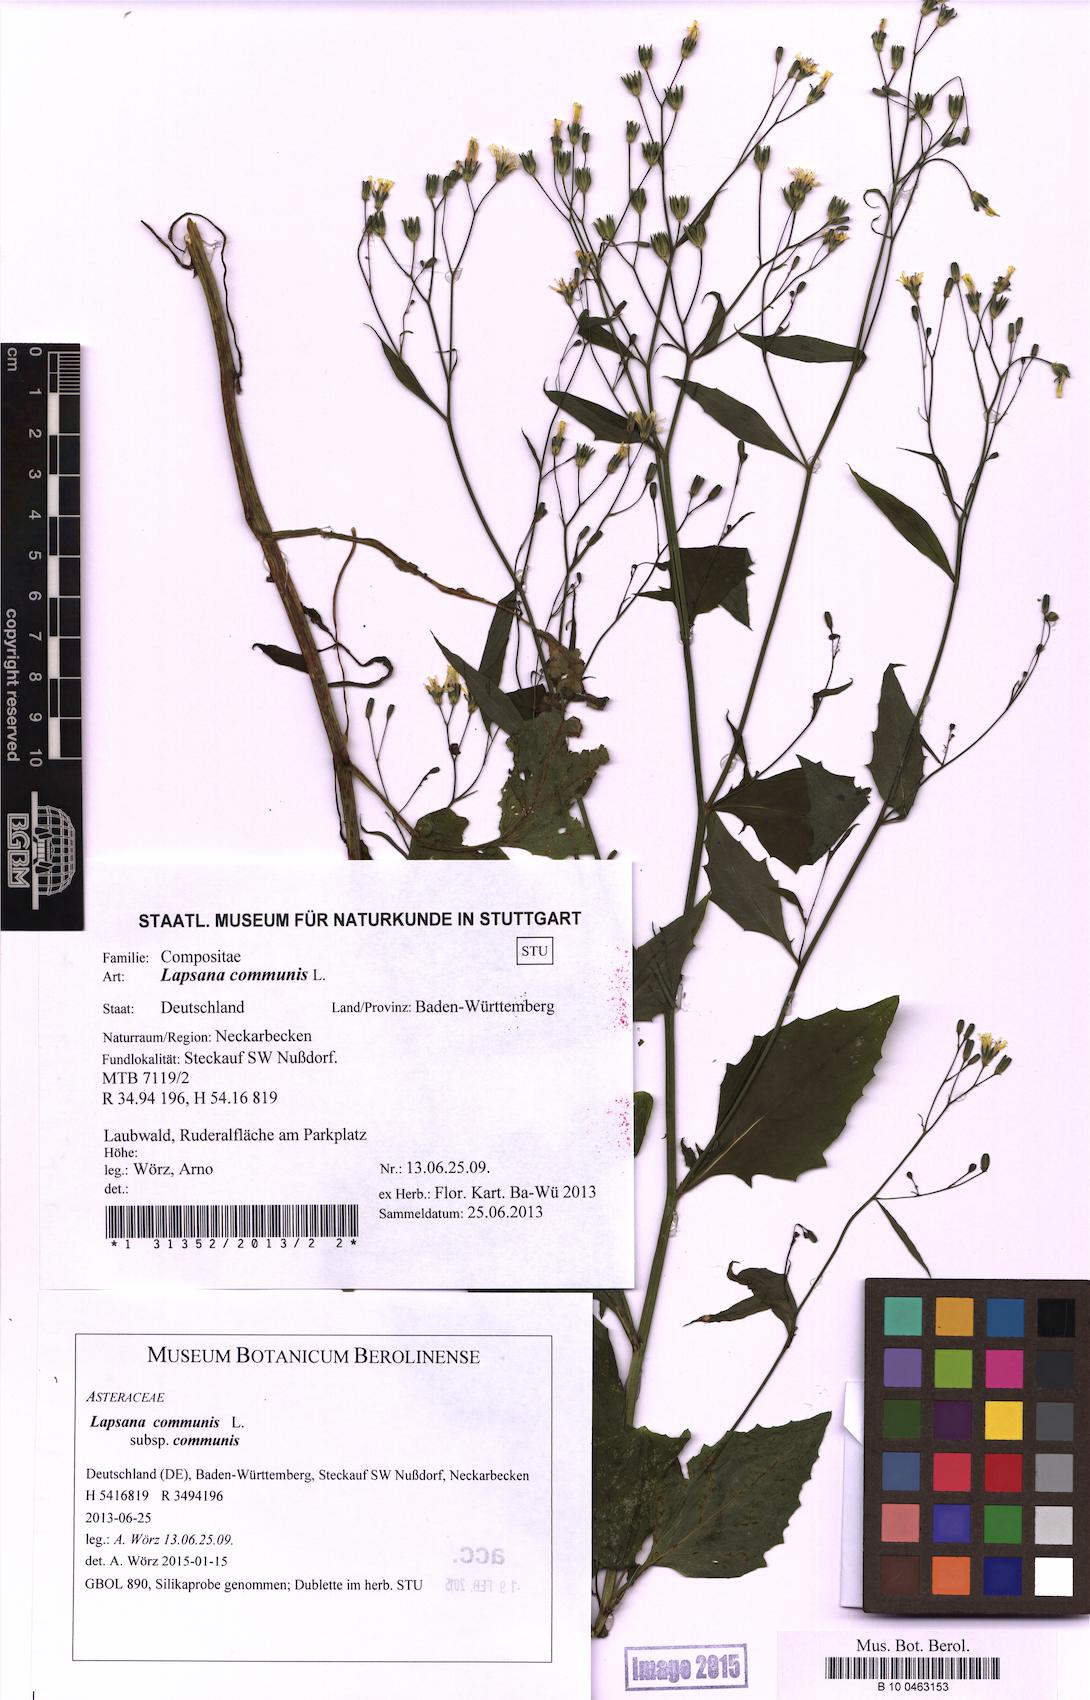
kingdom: Plantae
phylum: Tracheophyta
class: Magnoliopsida
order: Asterales
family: Asteraceae
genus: Lapsana
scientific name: Lapsana communis
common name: Nipplewort
